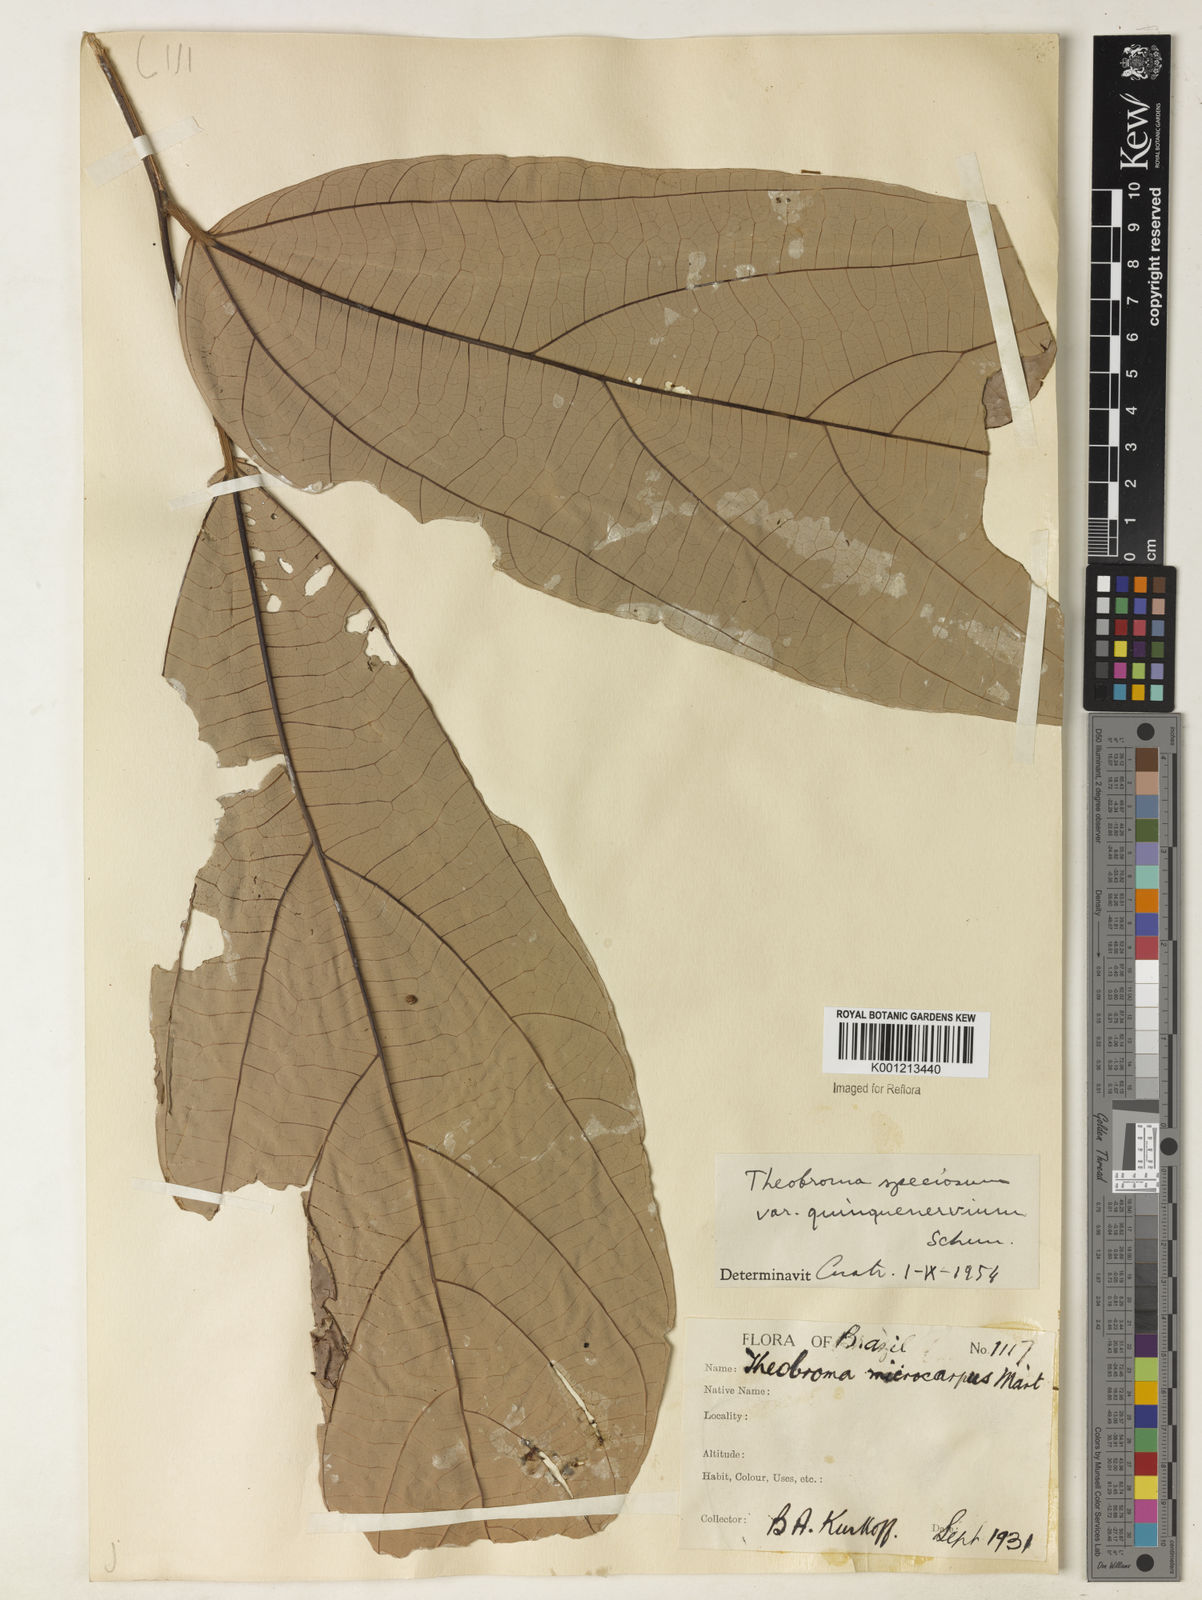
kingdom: Plantae
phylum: Tracheophyta
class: Magnoliopsida
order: Malvales
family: Malvaceae
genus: Theobroma
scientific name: Theobroma speciosum
